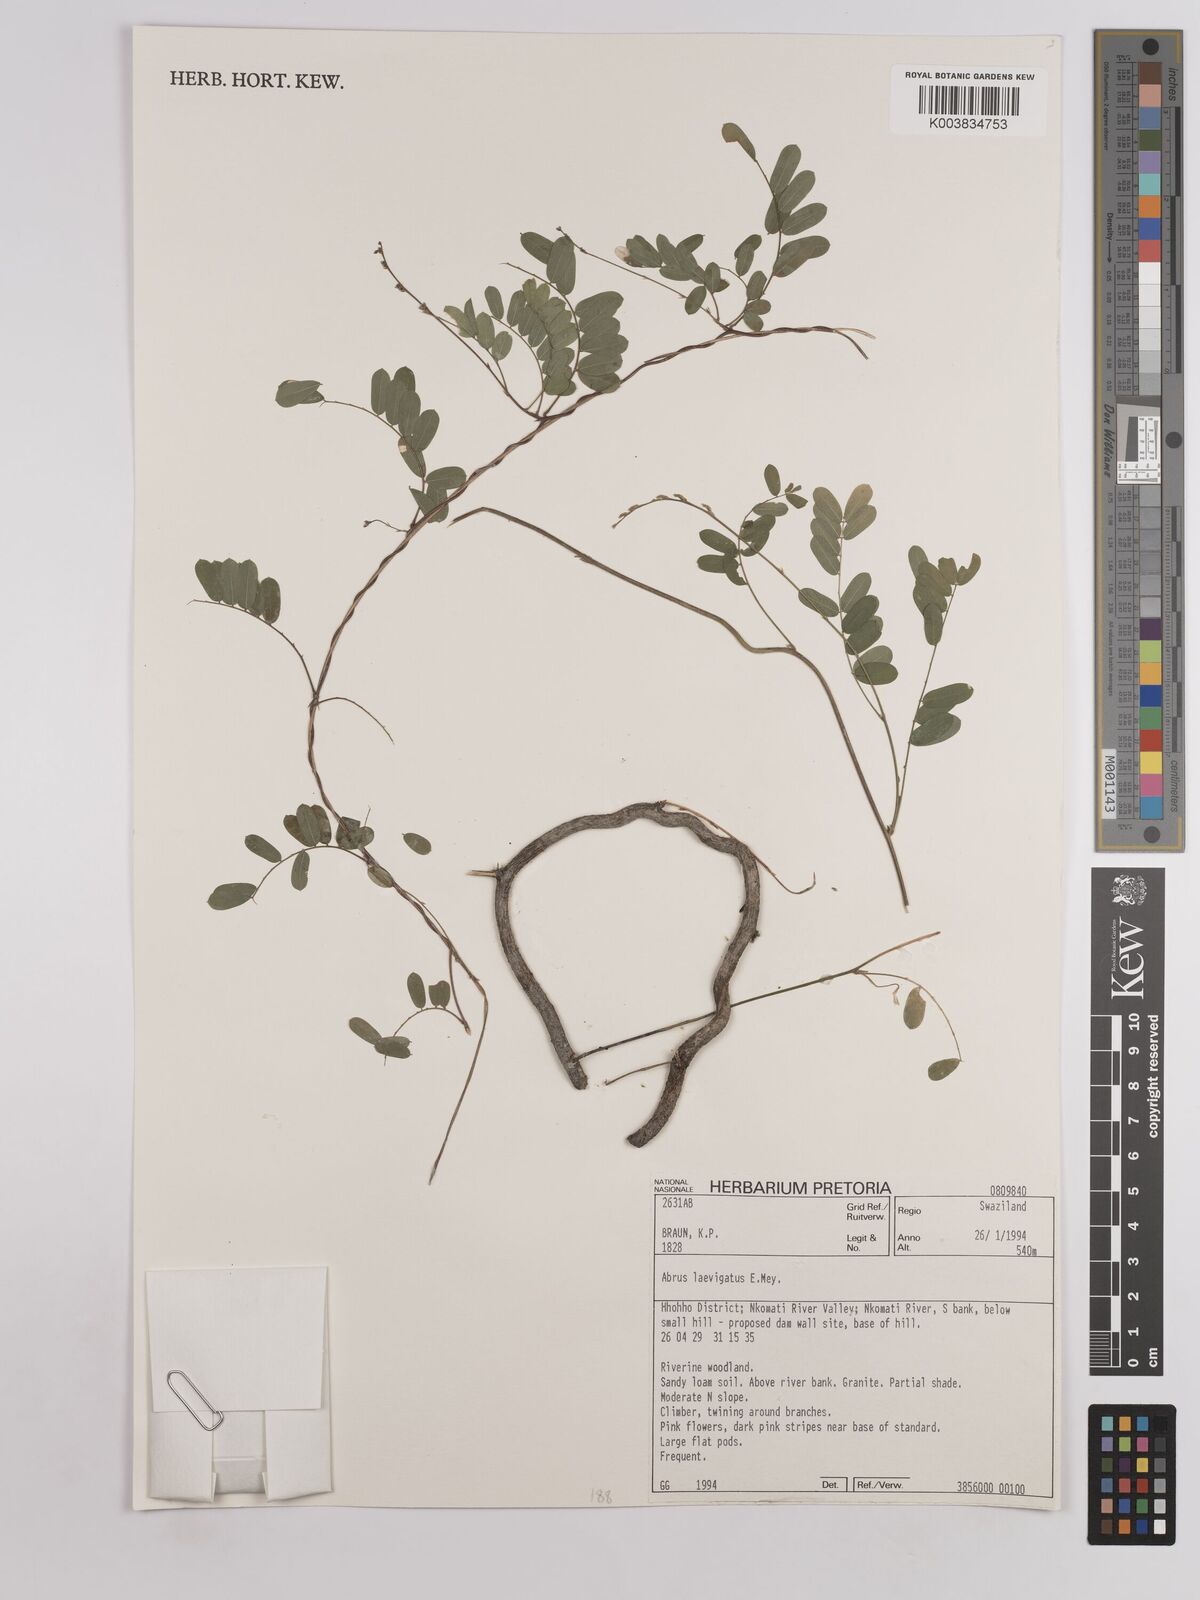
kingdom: Plantae
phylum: Tracheophyta
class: Magnoliopsida
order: Fabales
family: Fabaceae
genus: Abrus
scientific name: Abrus laevigatus
